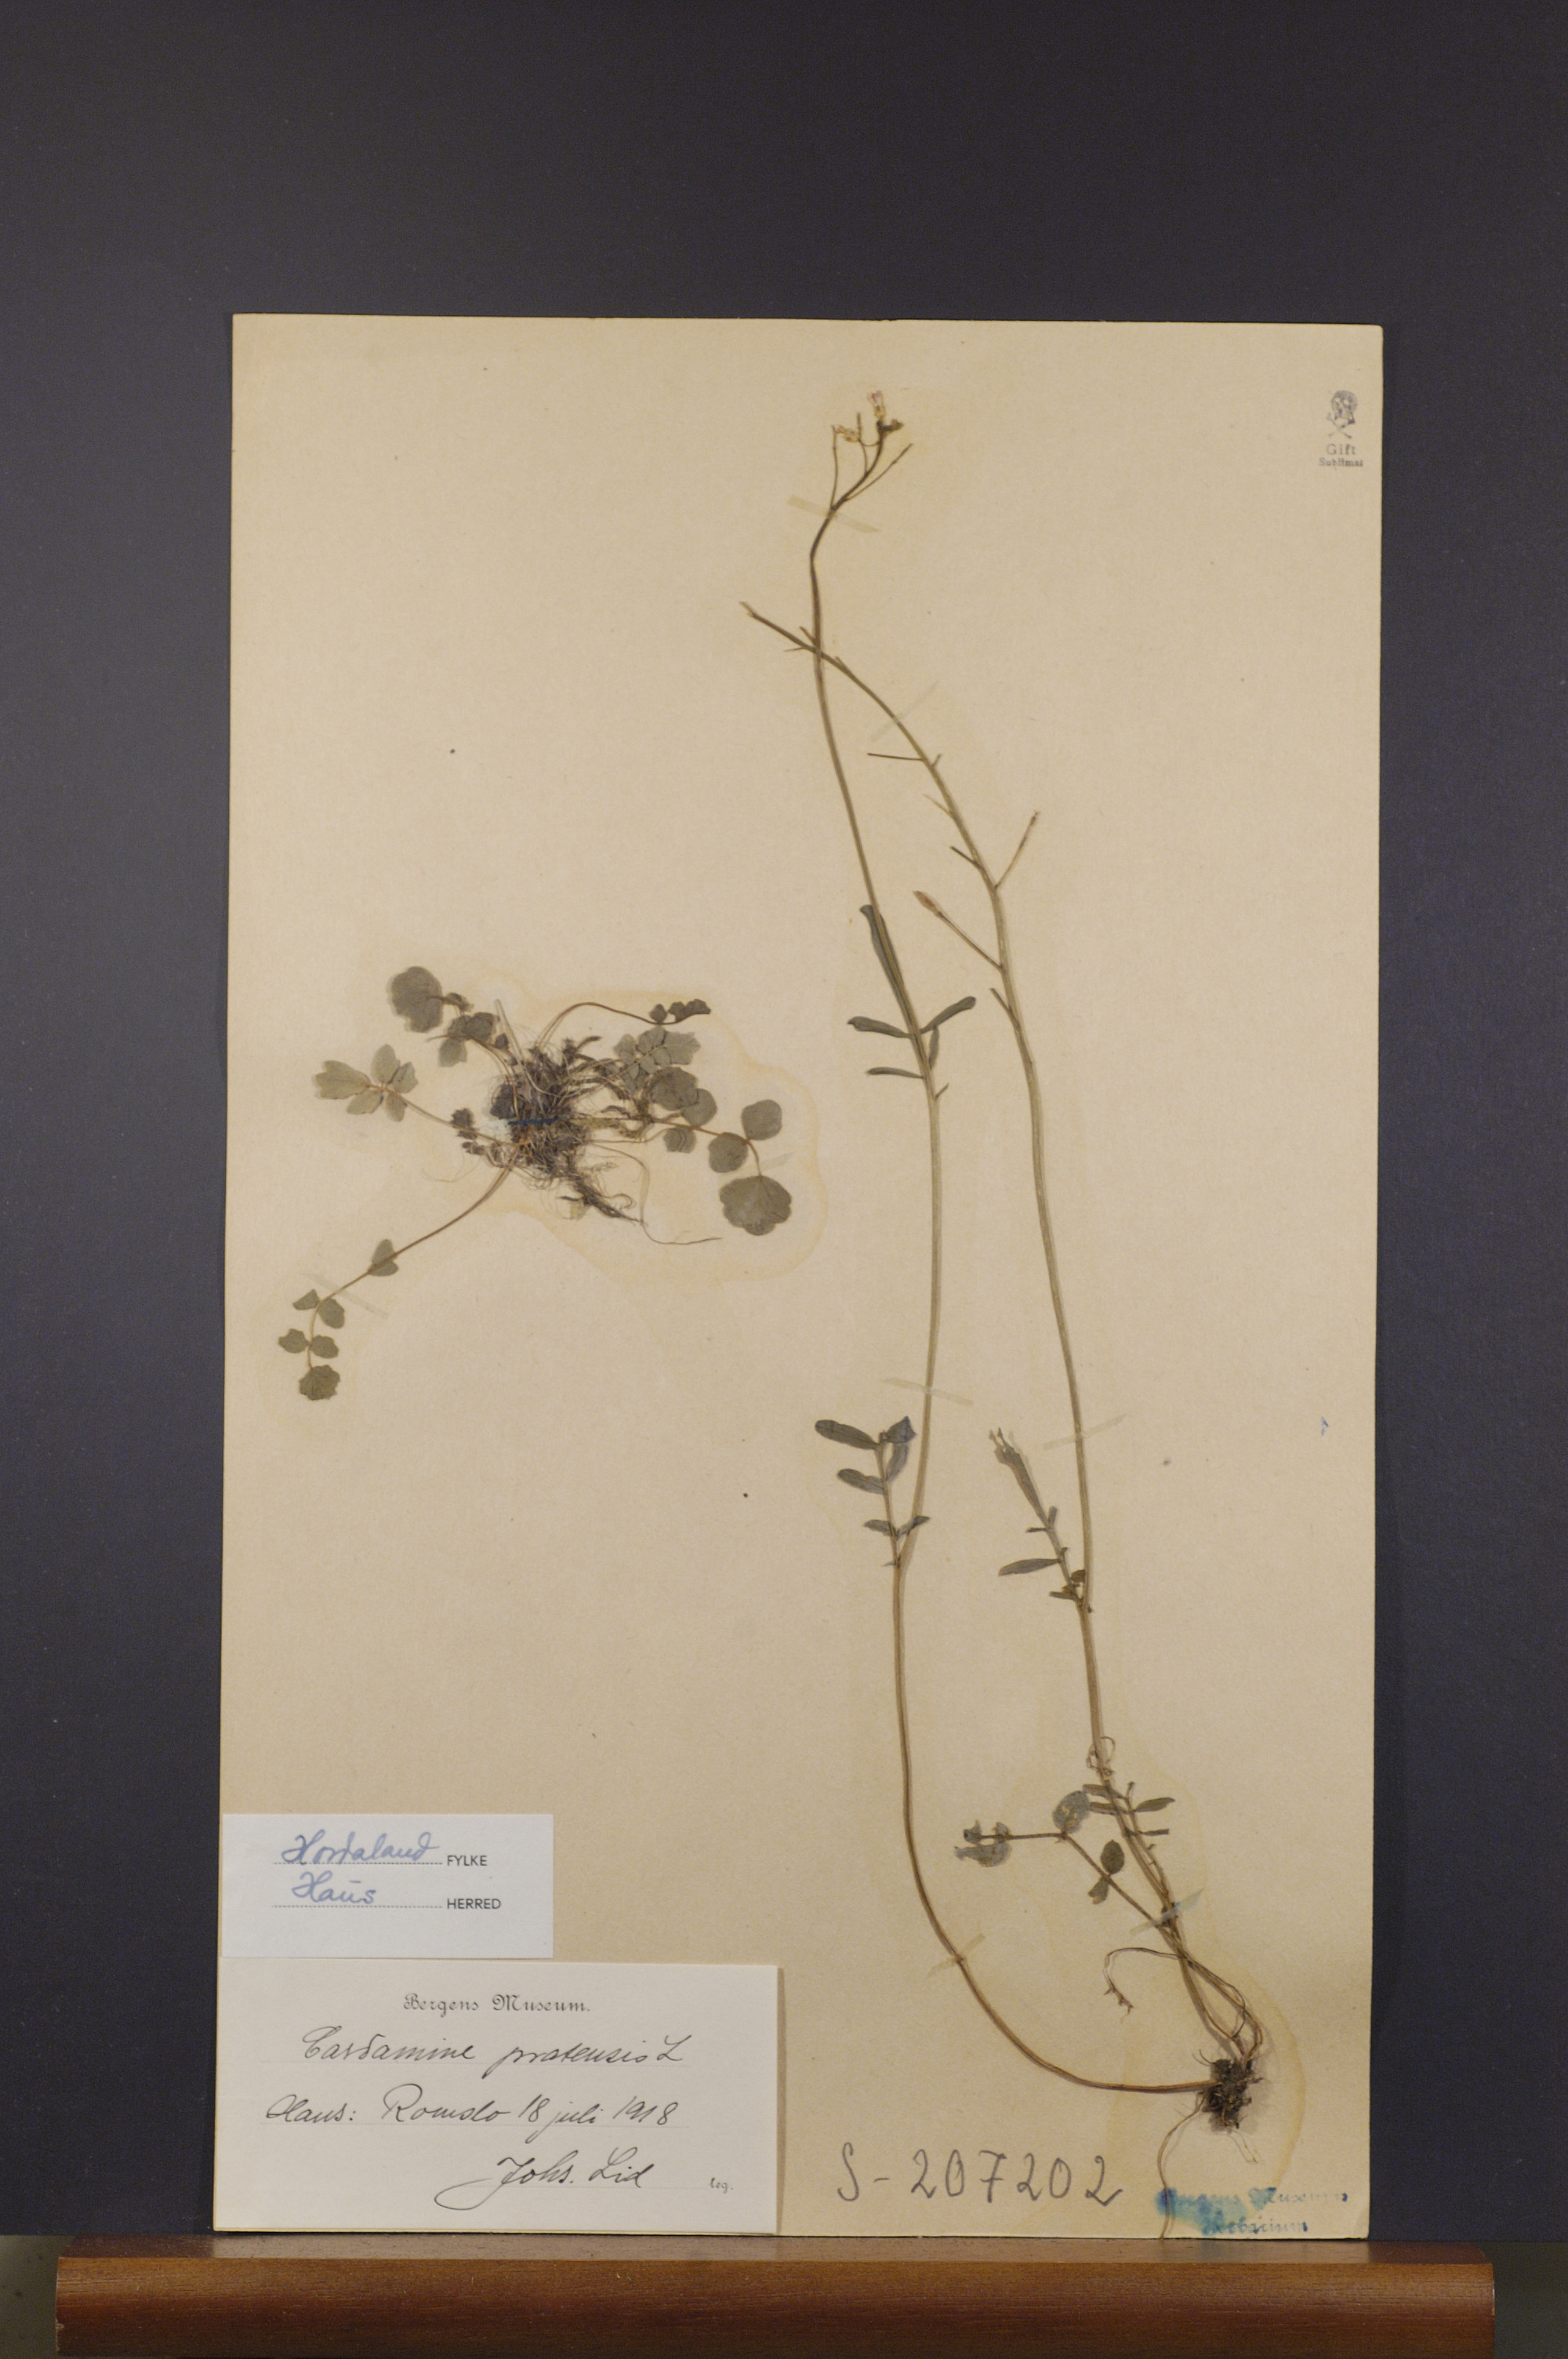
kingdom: Plantae
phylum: Tracheophyta
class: Magnoliopsida
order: Brassicales
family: Brassicaceae
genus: Cardamine
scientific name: Cardamine pratensis
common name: Cuckoo flower
